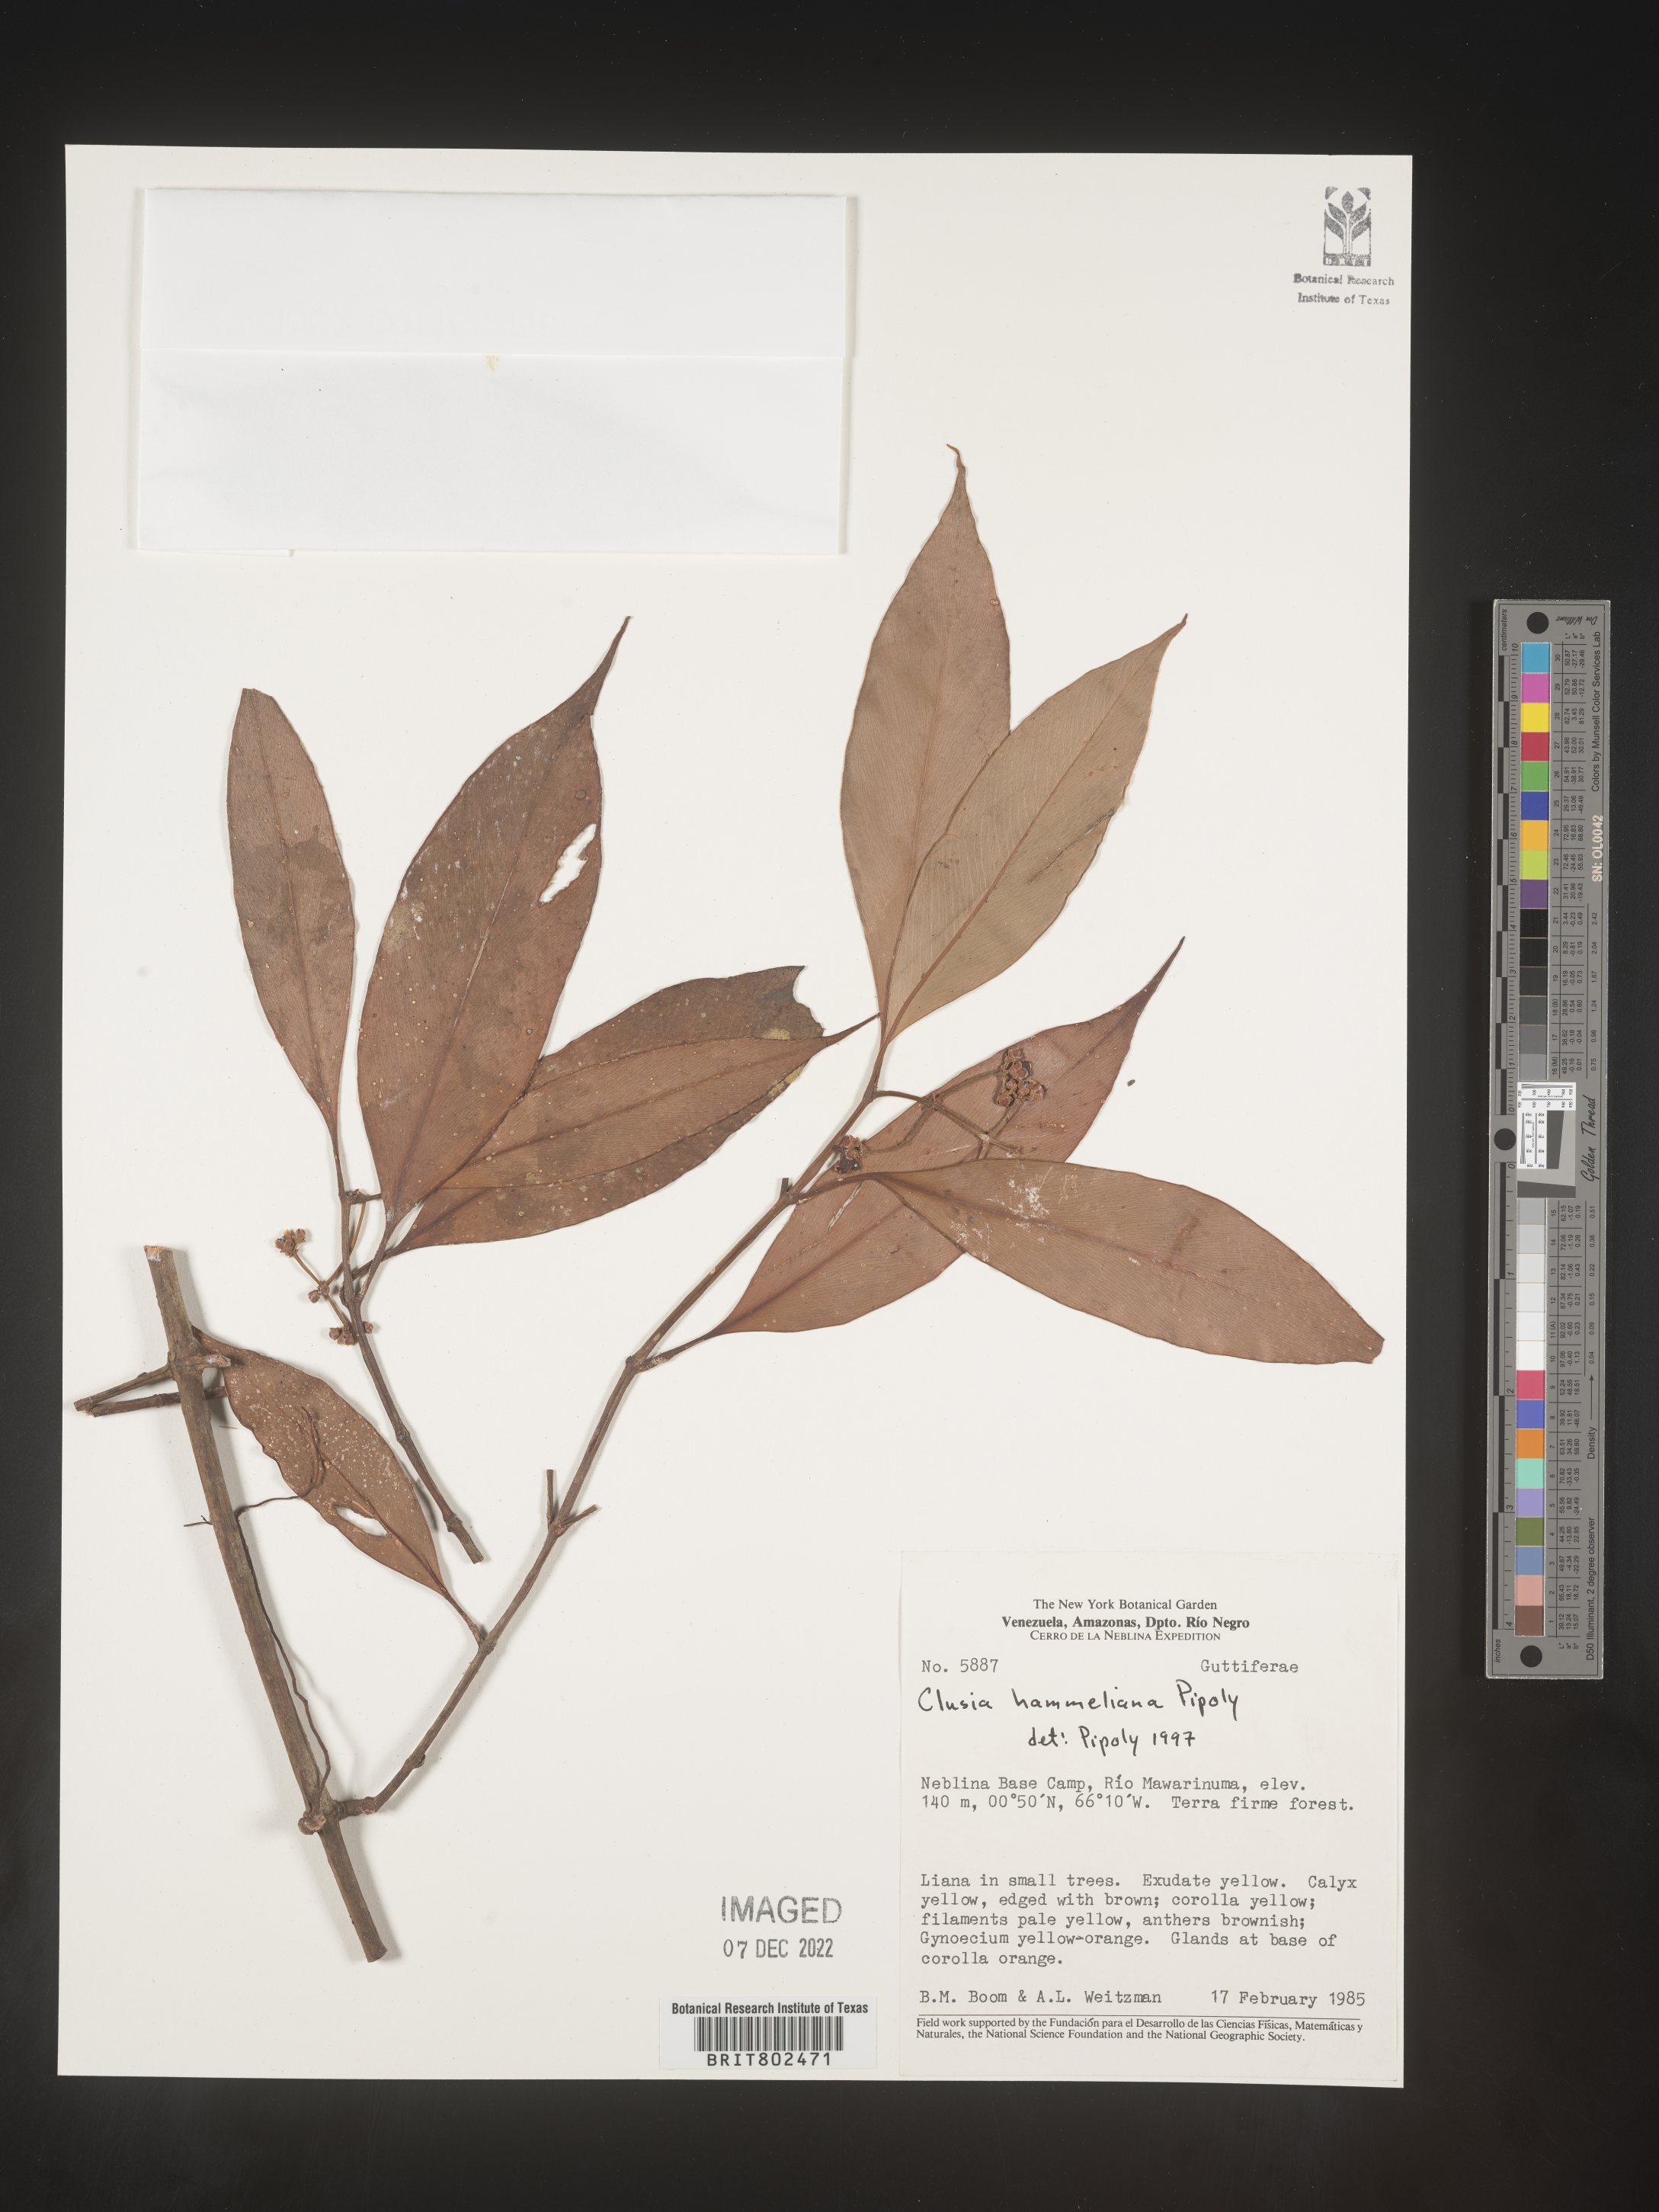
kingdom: Plantae
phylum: Tracheophyta
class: Magnoliopsida
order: Malpighiales
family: Clusiaceae
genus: Clusia
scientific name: Clusia hammeliana
